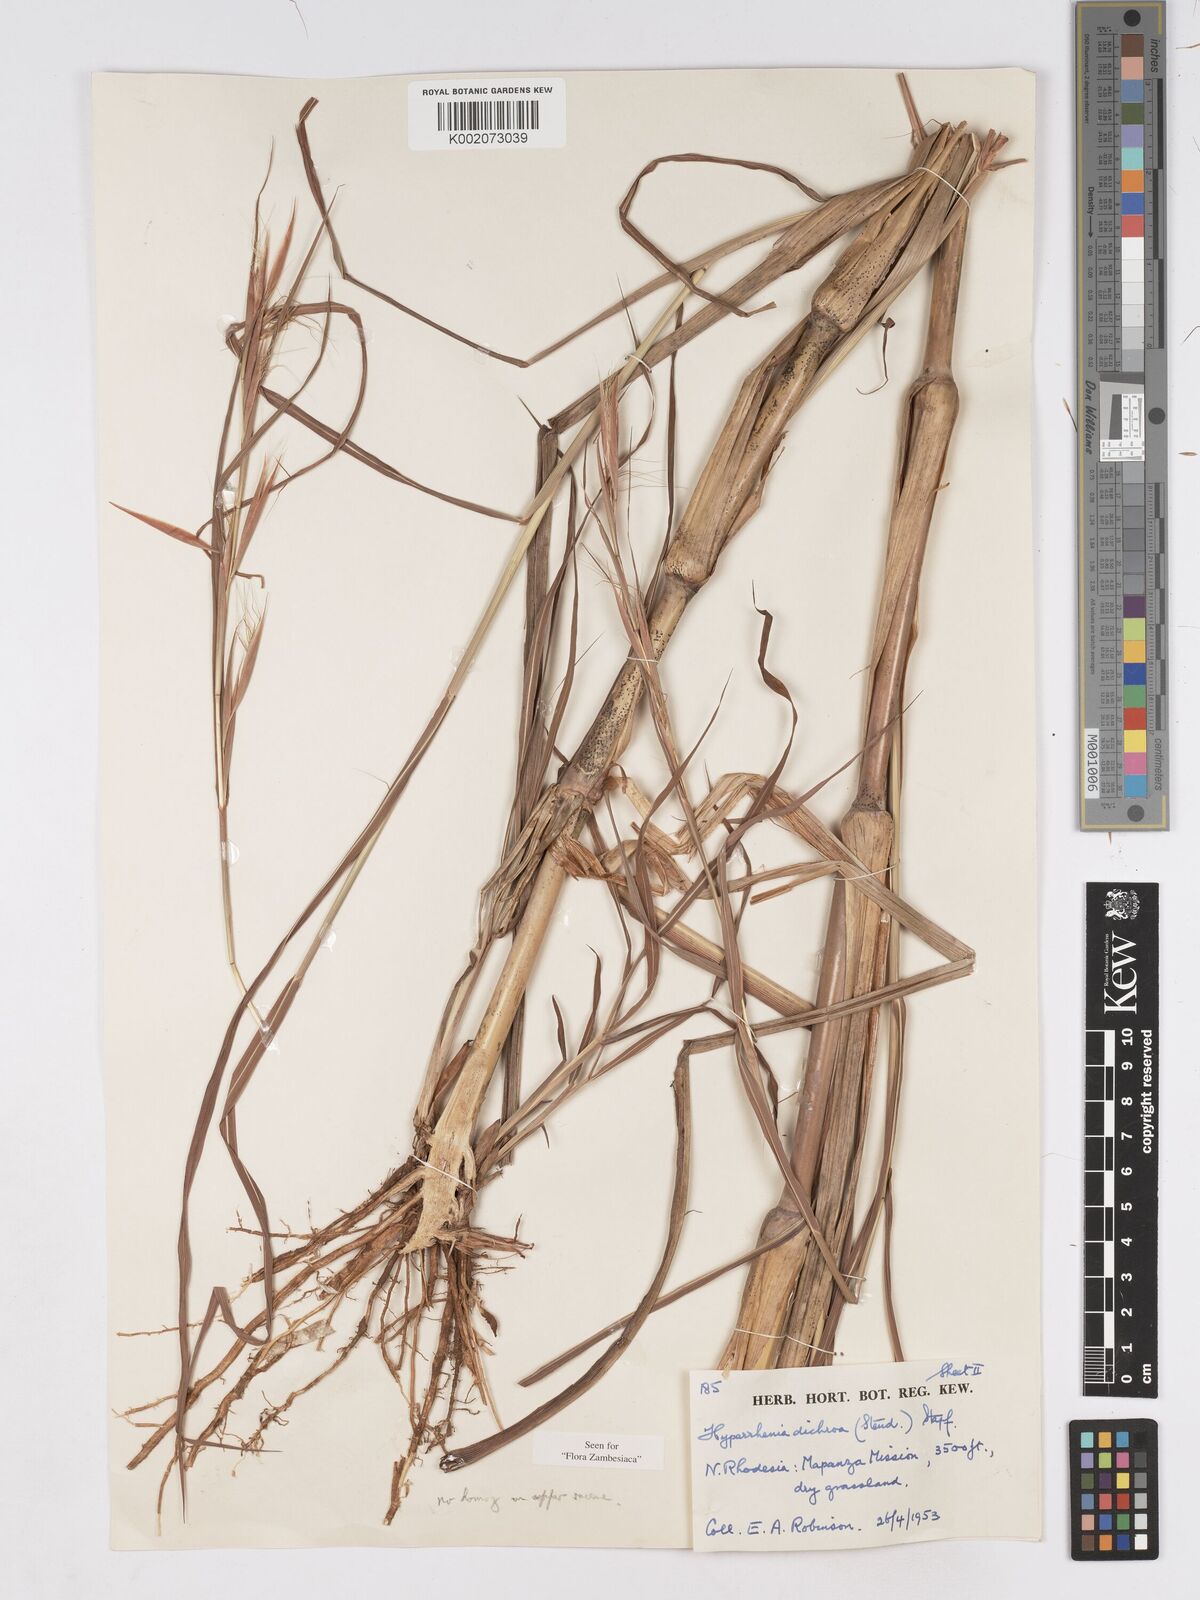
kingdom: Plantae
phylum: Tracheophyta
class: Liliopsida
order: Poales
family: Poaceae
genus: Hyparrhenia
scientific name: Hyparrhenia dichroa
